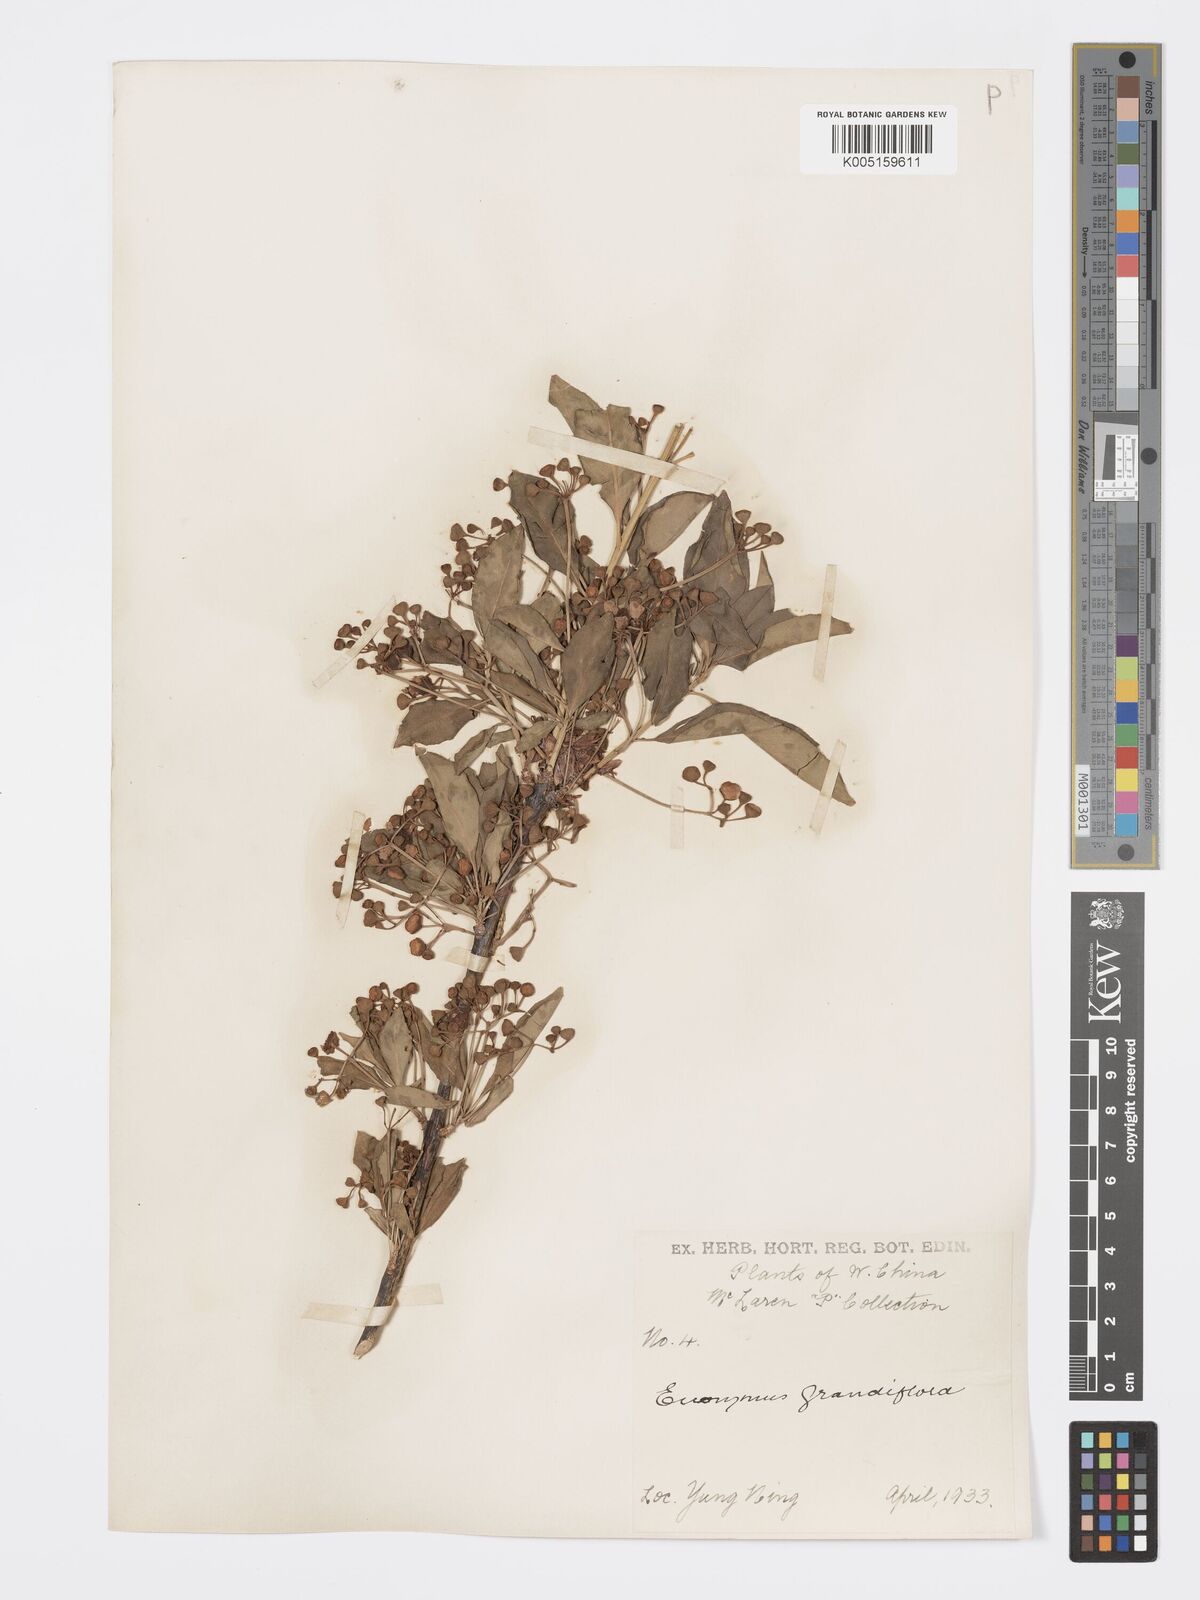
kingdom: Plantae
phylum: Tracheophyta
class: Magnoliopsida
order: Celastrales
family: Celastraceae
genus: Euonymus
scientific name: Euonymus grandiflorus
